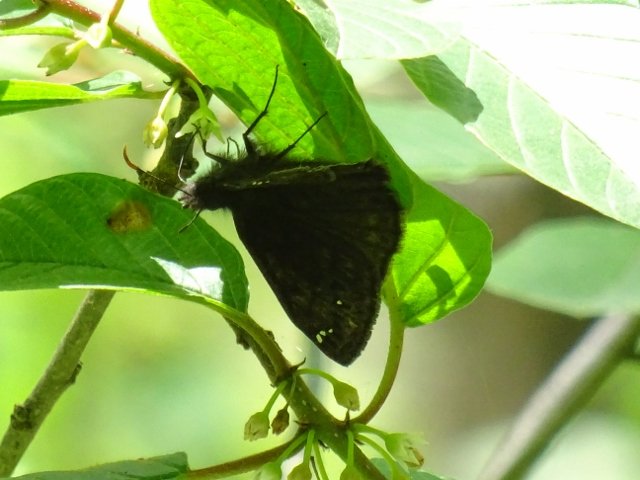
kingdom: Animalia
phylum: Arthropoda
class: Insecta
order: Lepidoptera
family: Hesperiidae
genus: Gesta
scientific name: Gesta
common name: Juvenal's Duskywing
